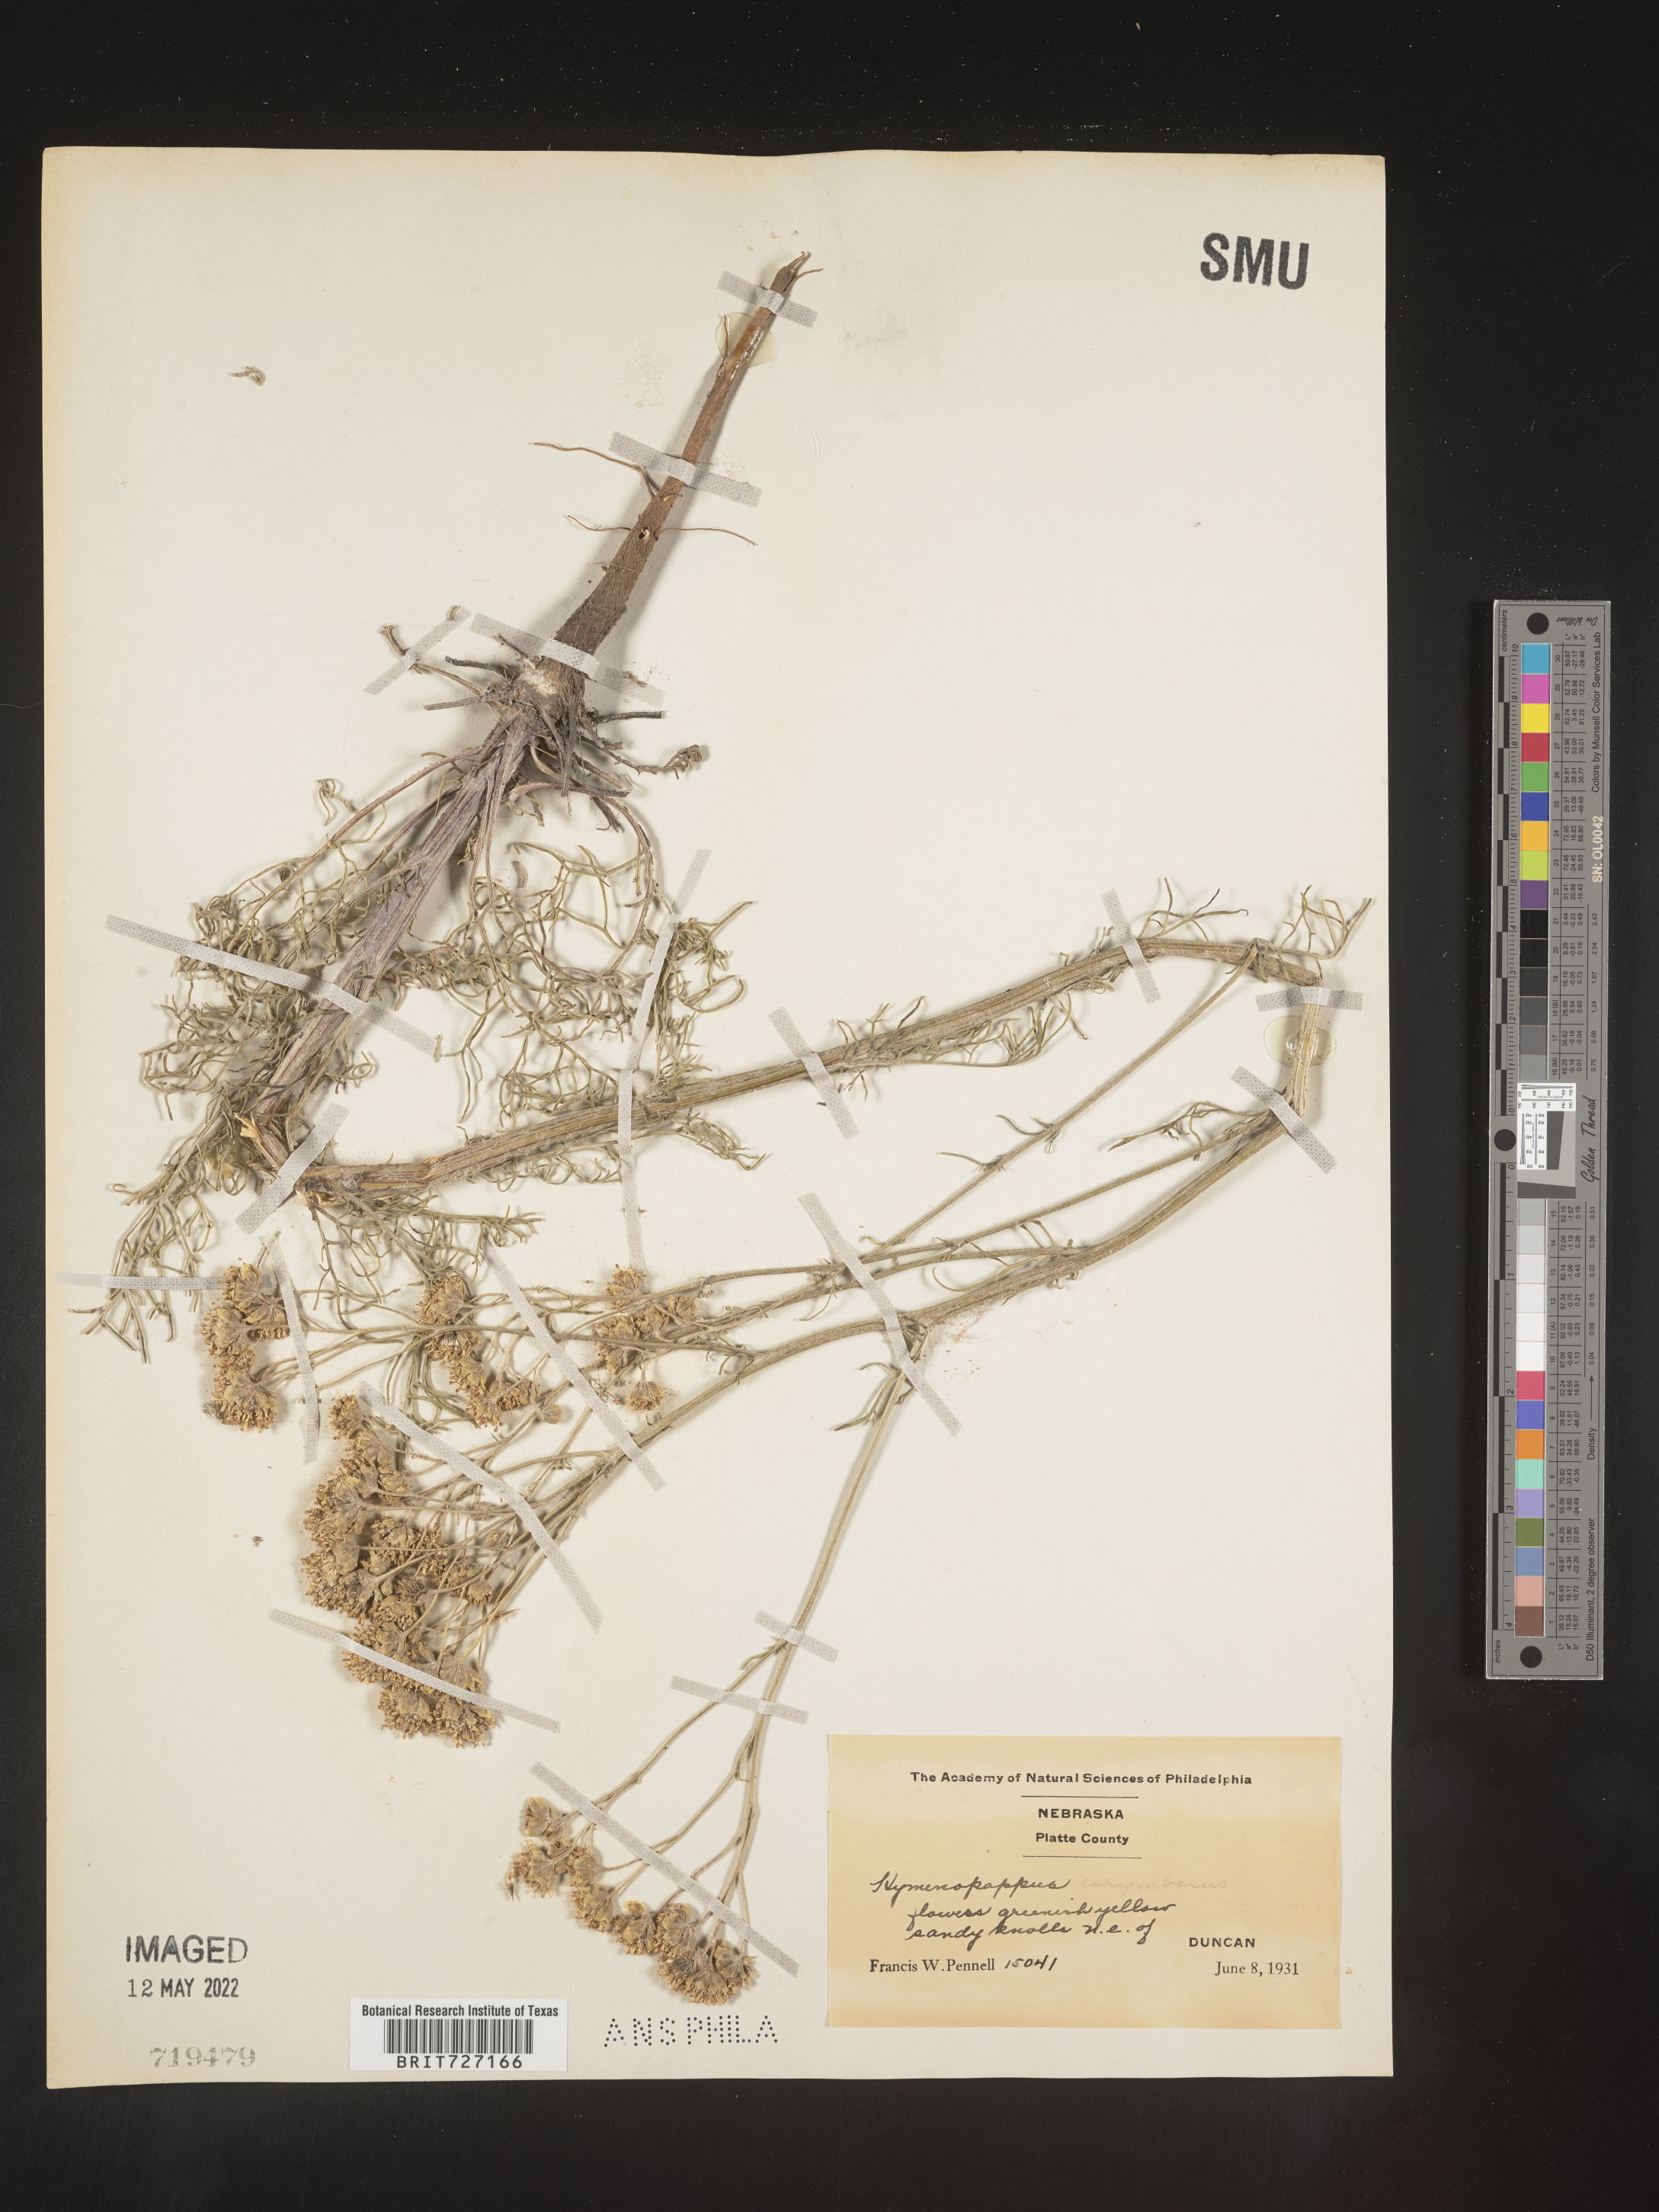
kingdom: Plantae
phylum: Tracheophyta
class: Magnoliopsida
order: Asterales
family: Asteraceae
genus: Hymenopappus
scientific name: Hymenopappus
